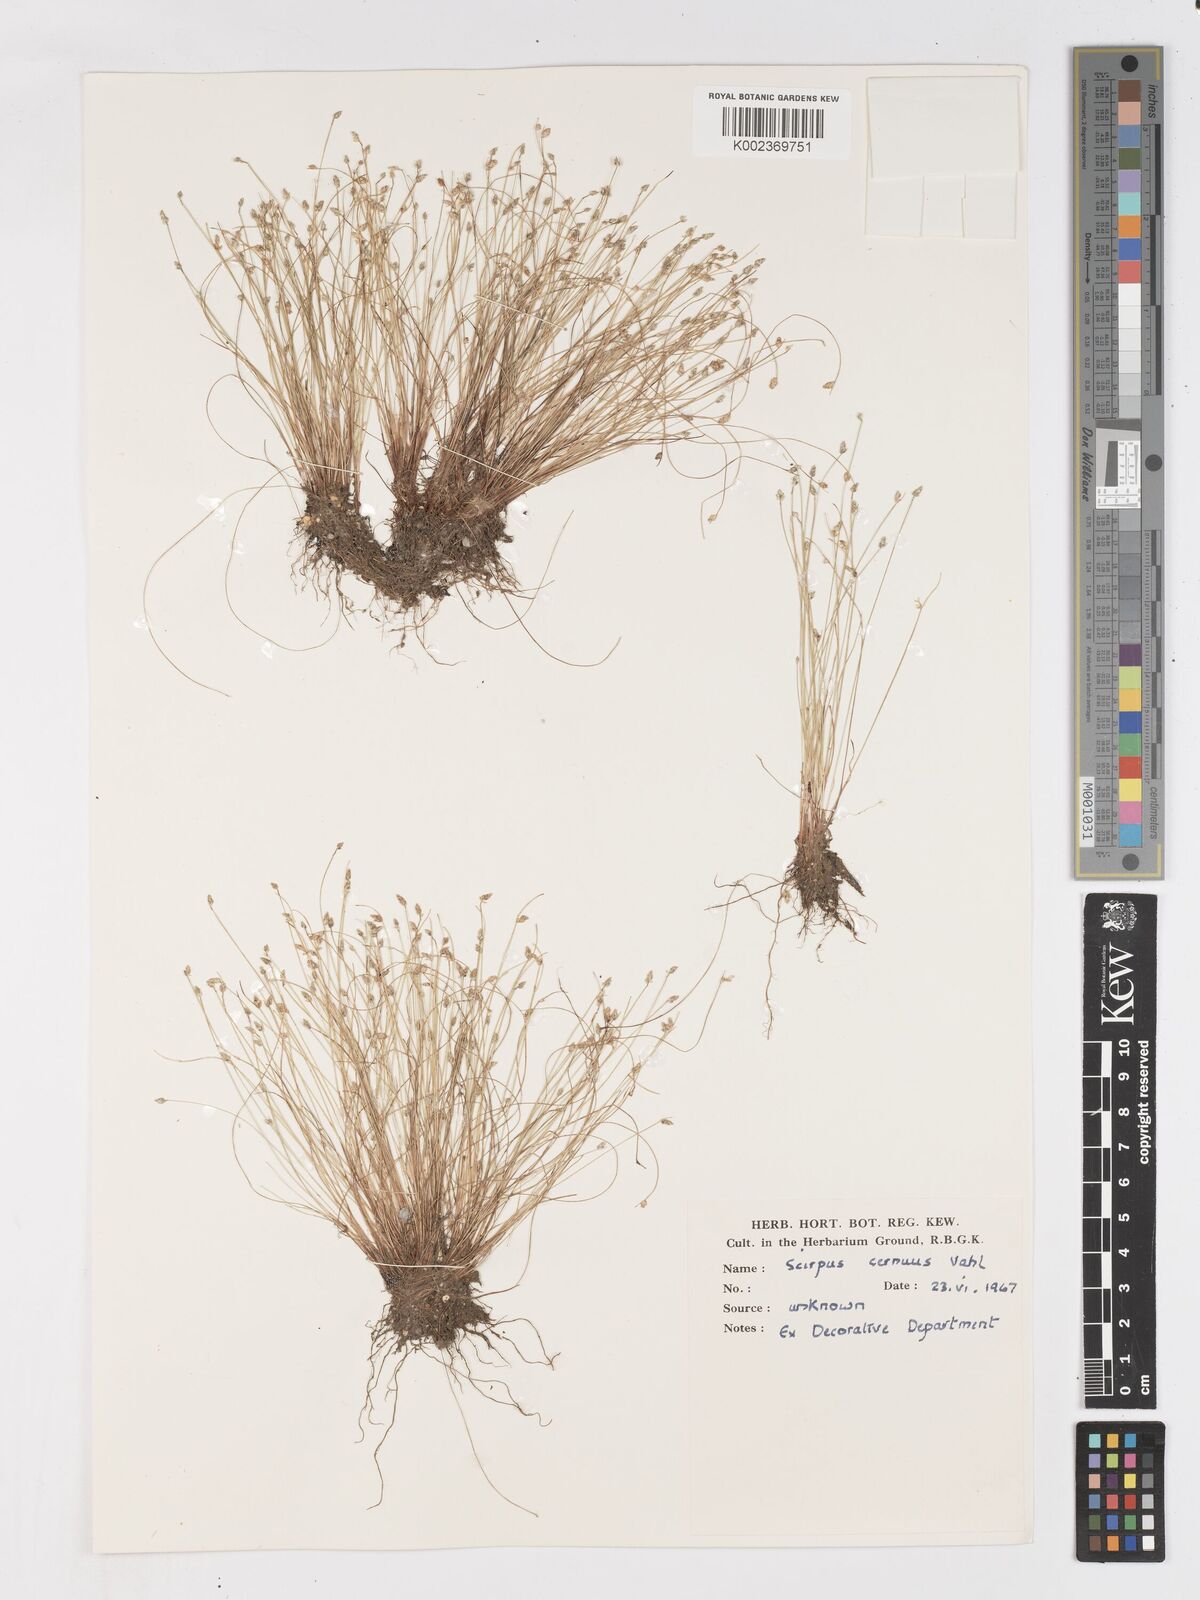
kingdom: Plantae
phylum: Tracheophyta
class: Liliopsida
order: Poales
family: Cyperaceae
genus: Isolepis
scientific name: Isolepis cernua
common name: Slender club-rush
